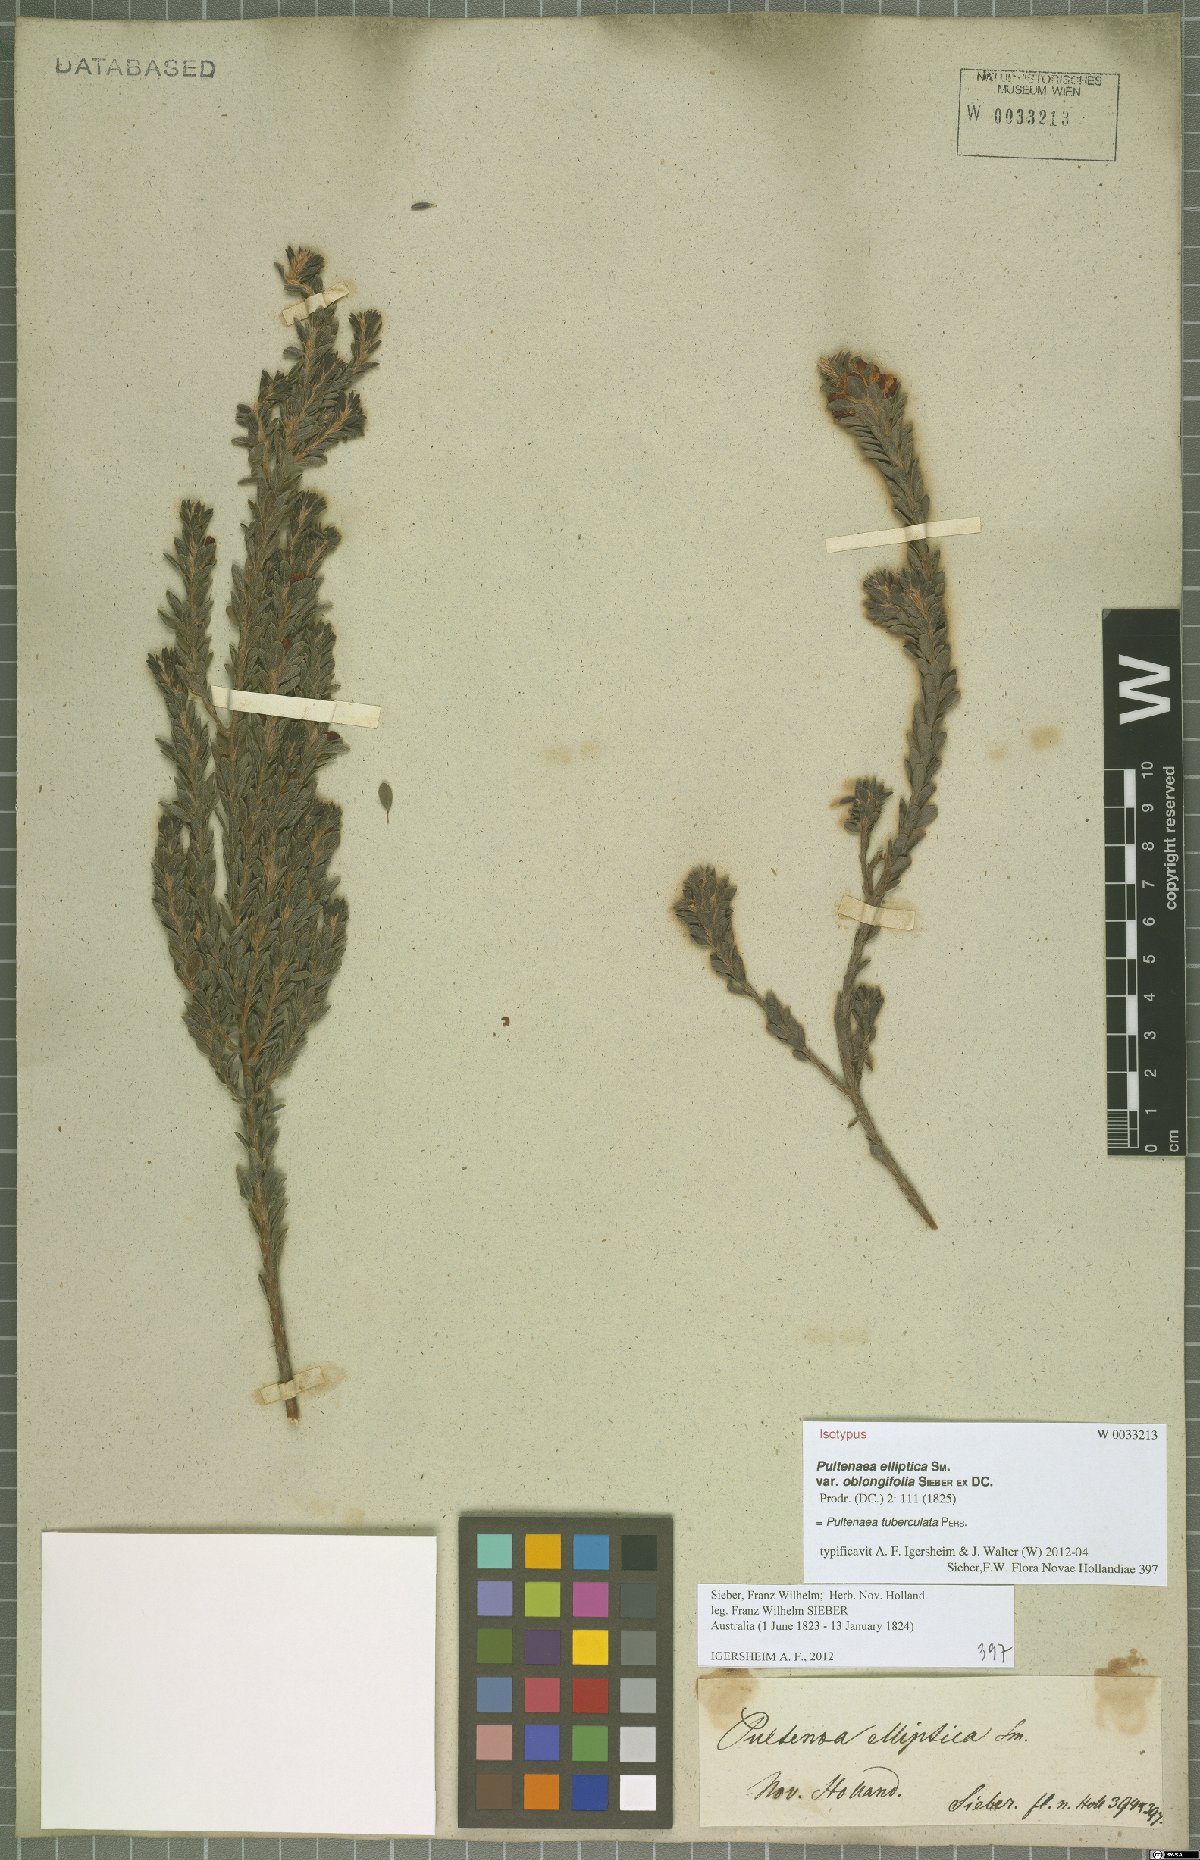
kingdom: Plantae
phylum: Tracheophyta
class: Magnoliopsida
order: Fabales
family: Fabaceae
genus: Pultenaea
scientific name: Pultenaea tuberculata
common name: Wreath bush-pea
